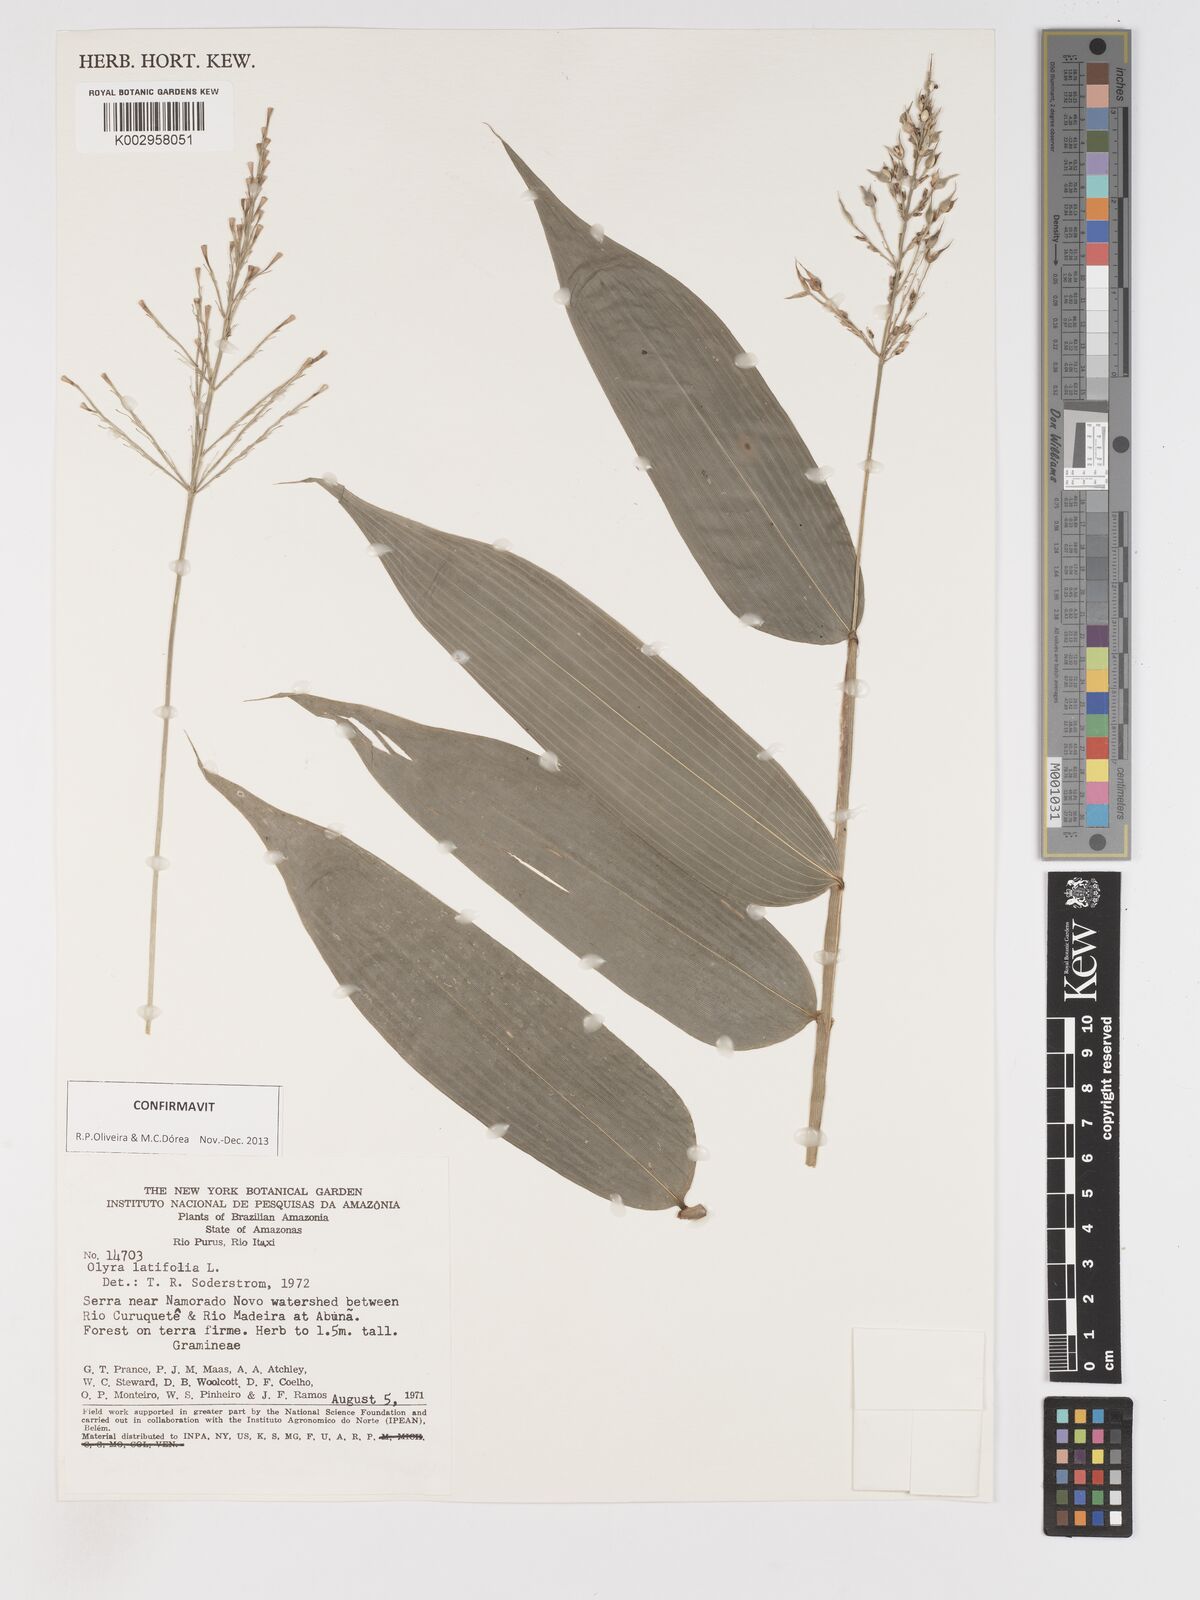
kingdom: Plantae
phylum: Tracheophyta
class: Liliopsida
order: Poales
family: Poaceae
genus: Olyra
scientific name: Olyra latifolia
